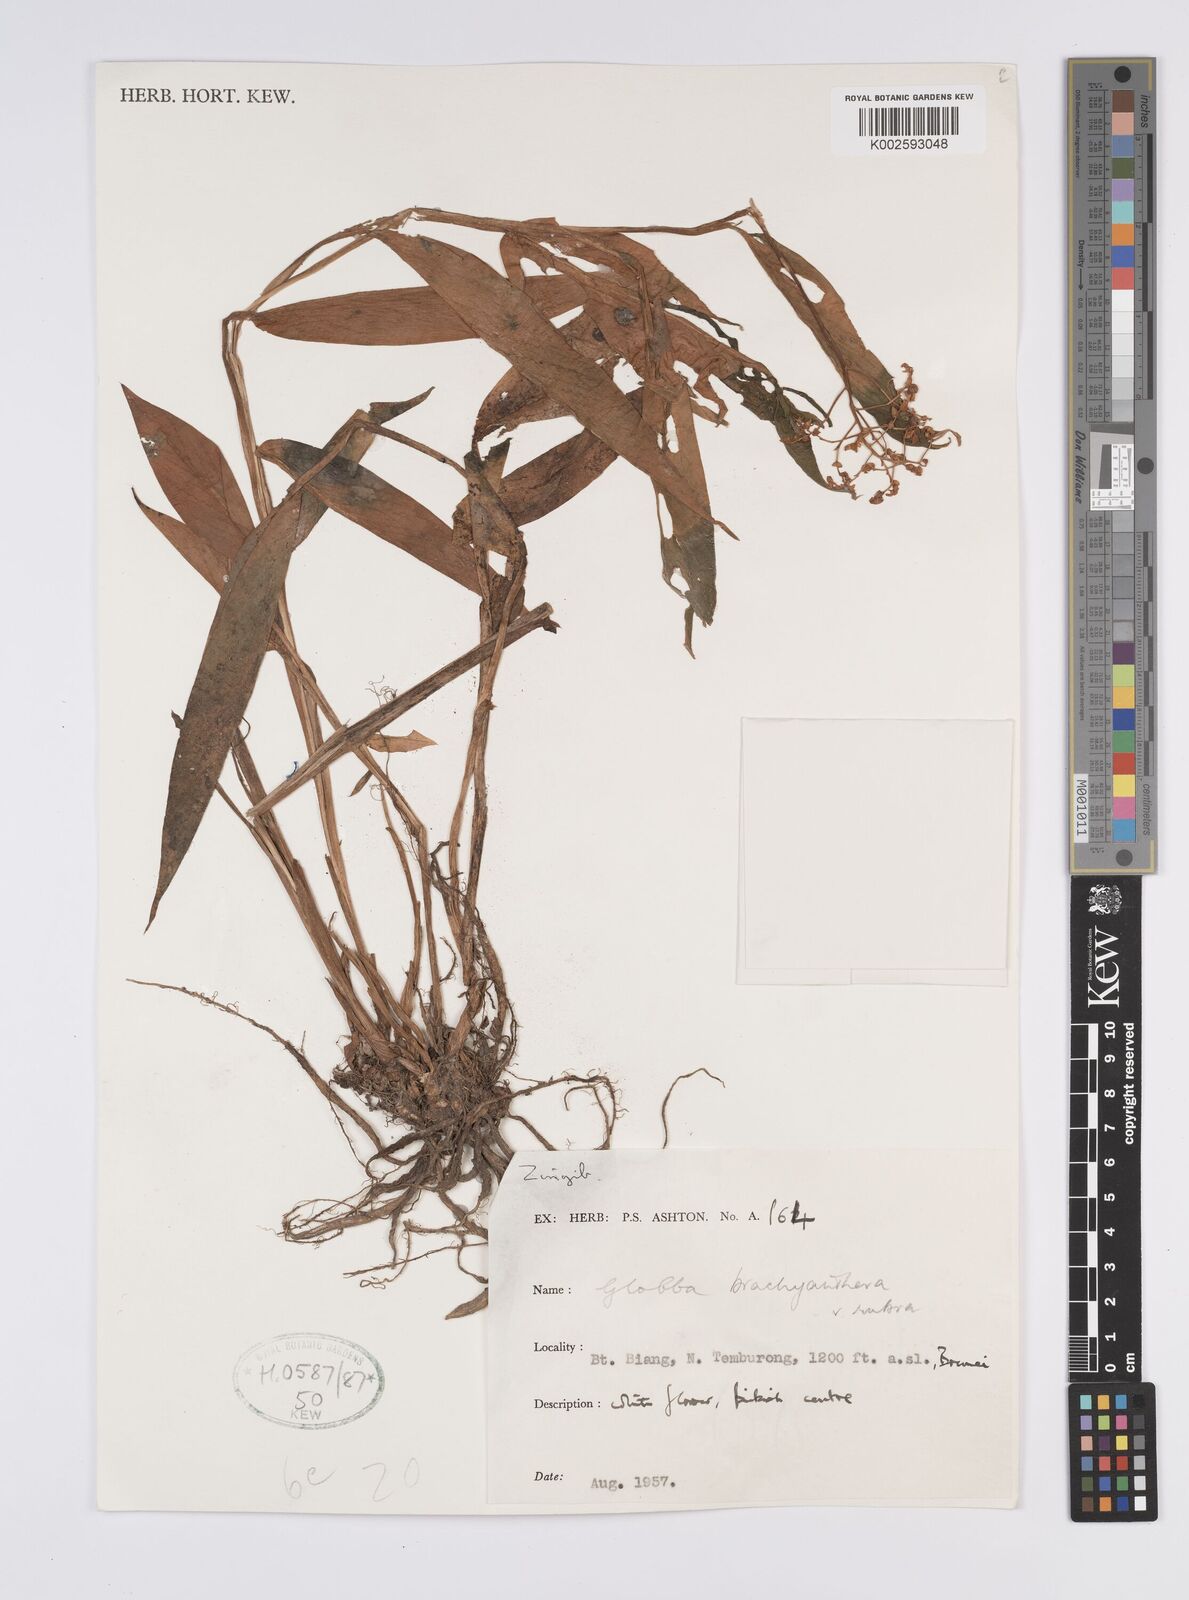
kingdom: Plantae
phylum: Tracheophyta
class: Liliopsida
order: Zingiberales
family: Zingiberaceae
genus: Globba
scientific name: Globba brachyanthera
